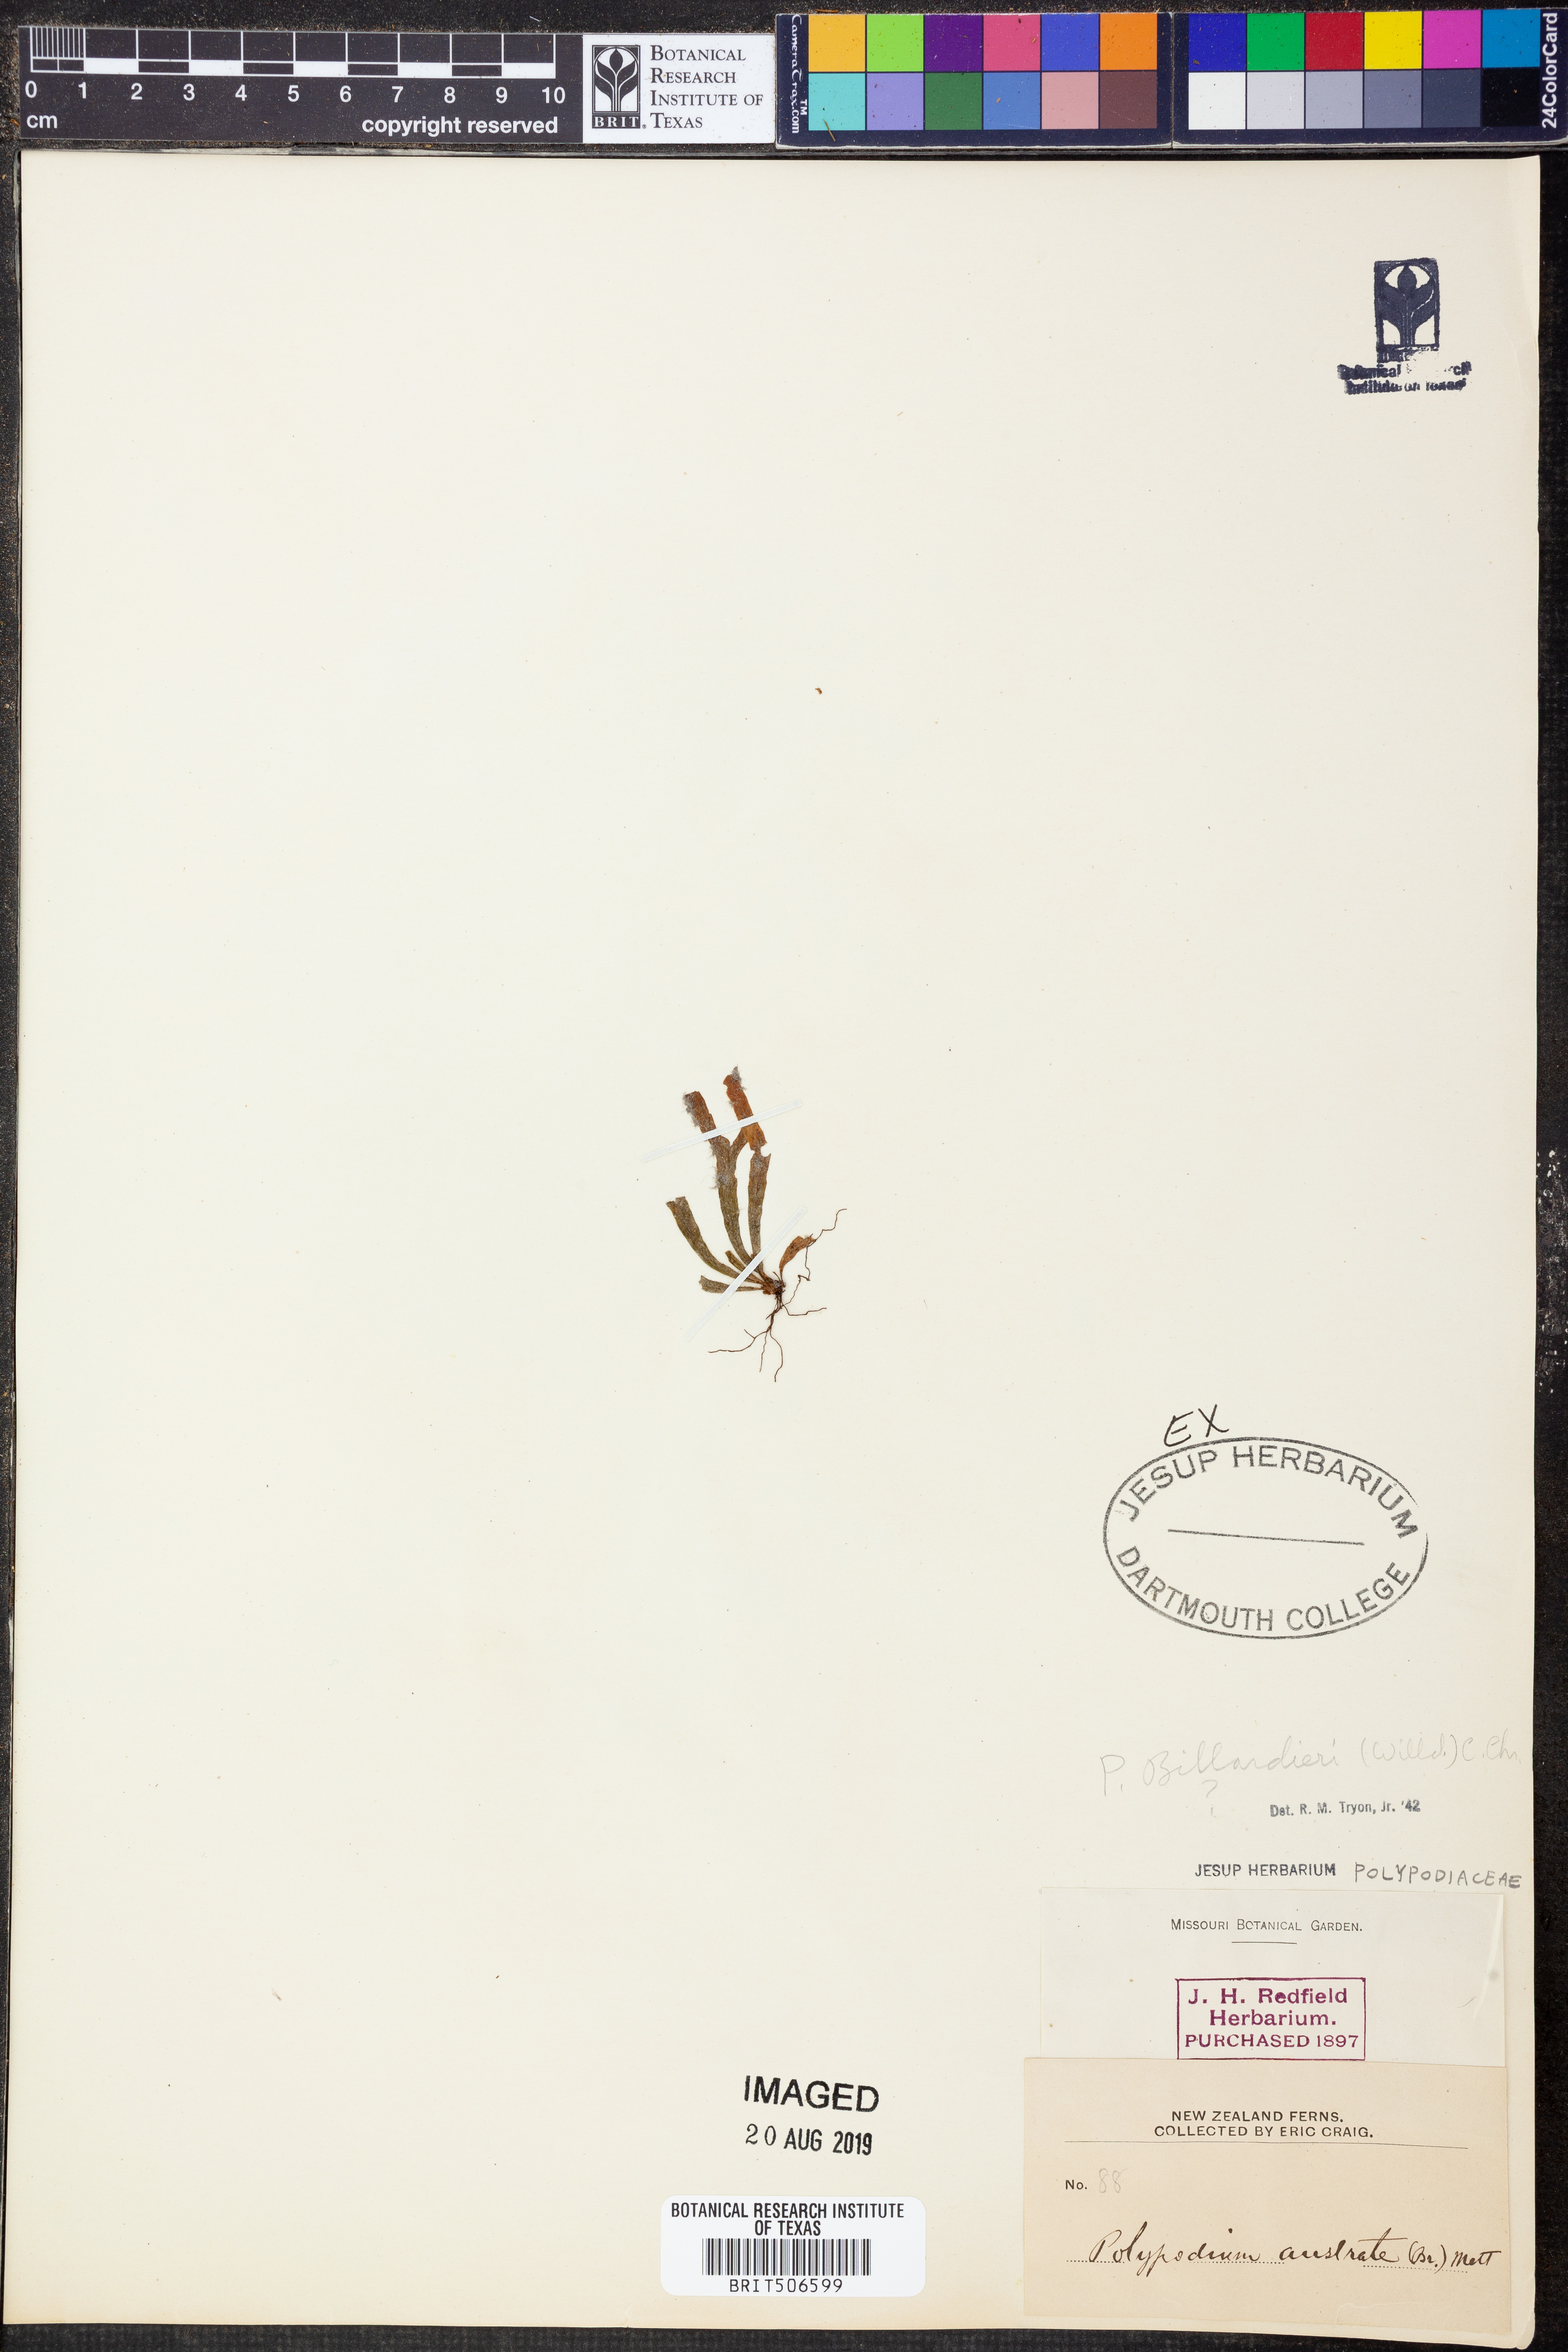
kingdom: Plantae
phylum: Tracheophyta
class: Polypodiopsida
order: Polypodiales
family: Polypodiaceae
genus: Polypodium
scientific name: Polypodium cambricum
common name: Southern polypody
